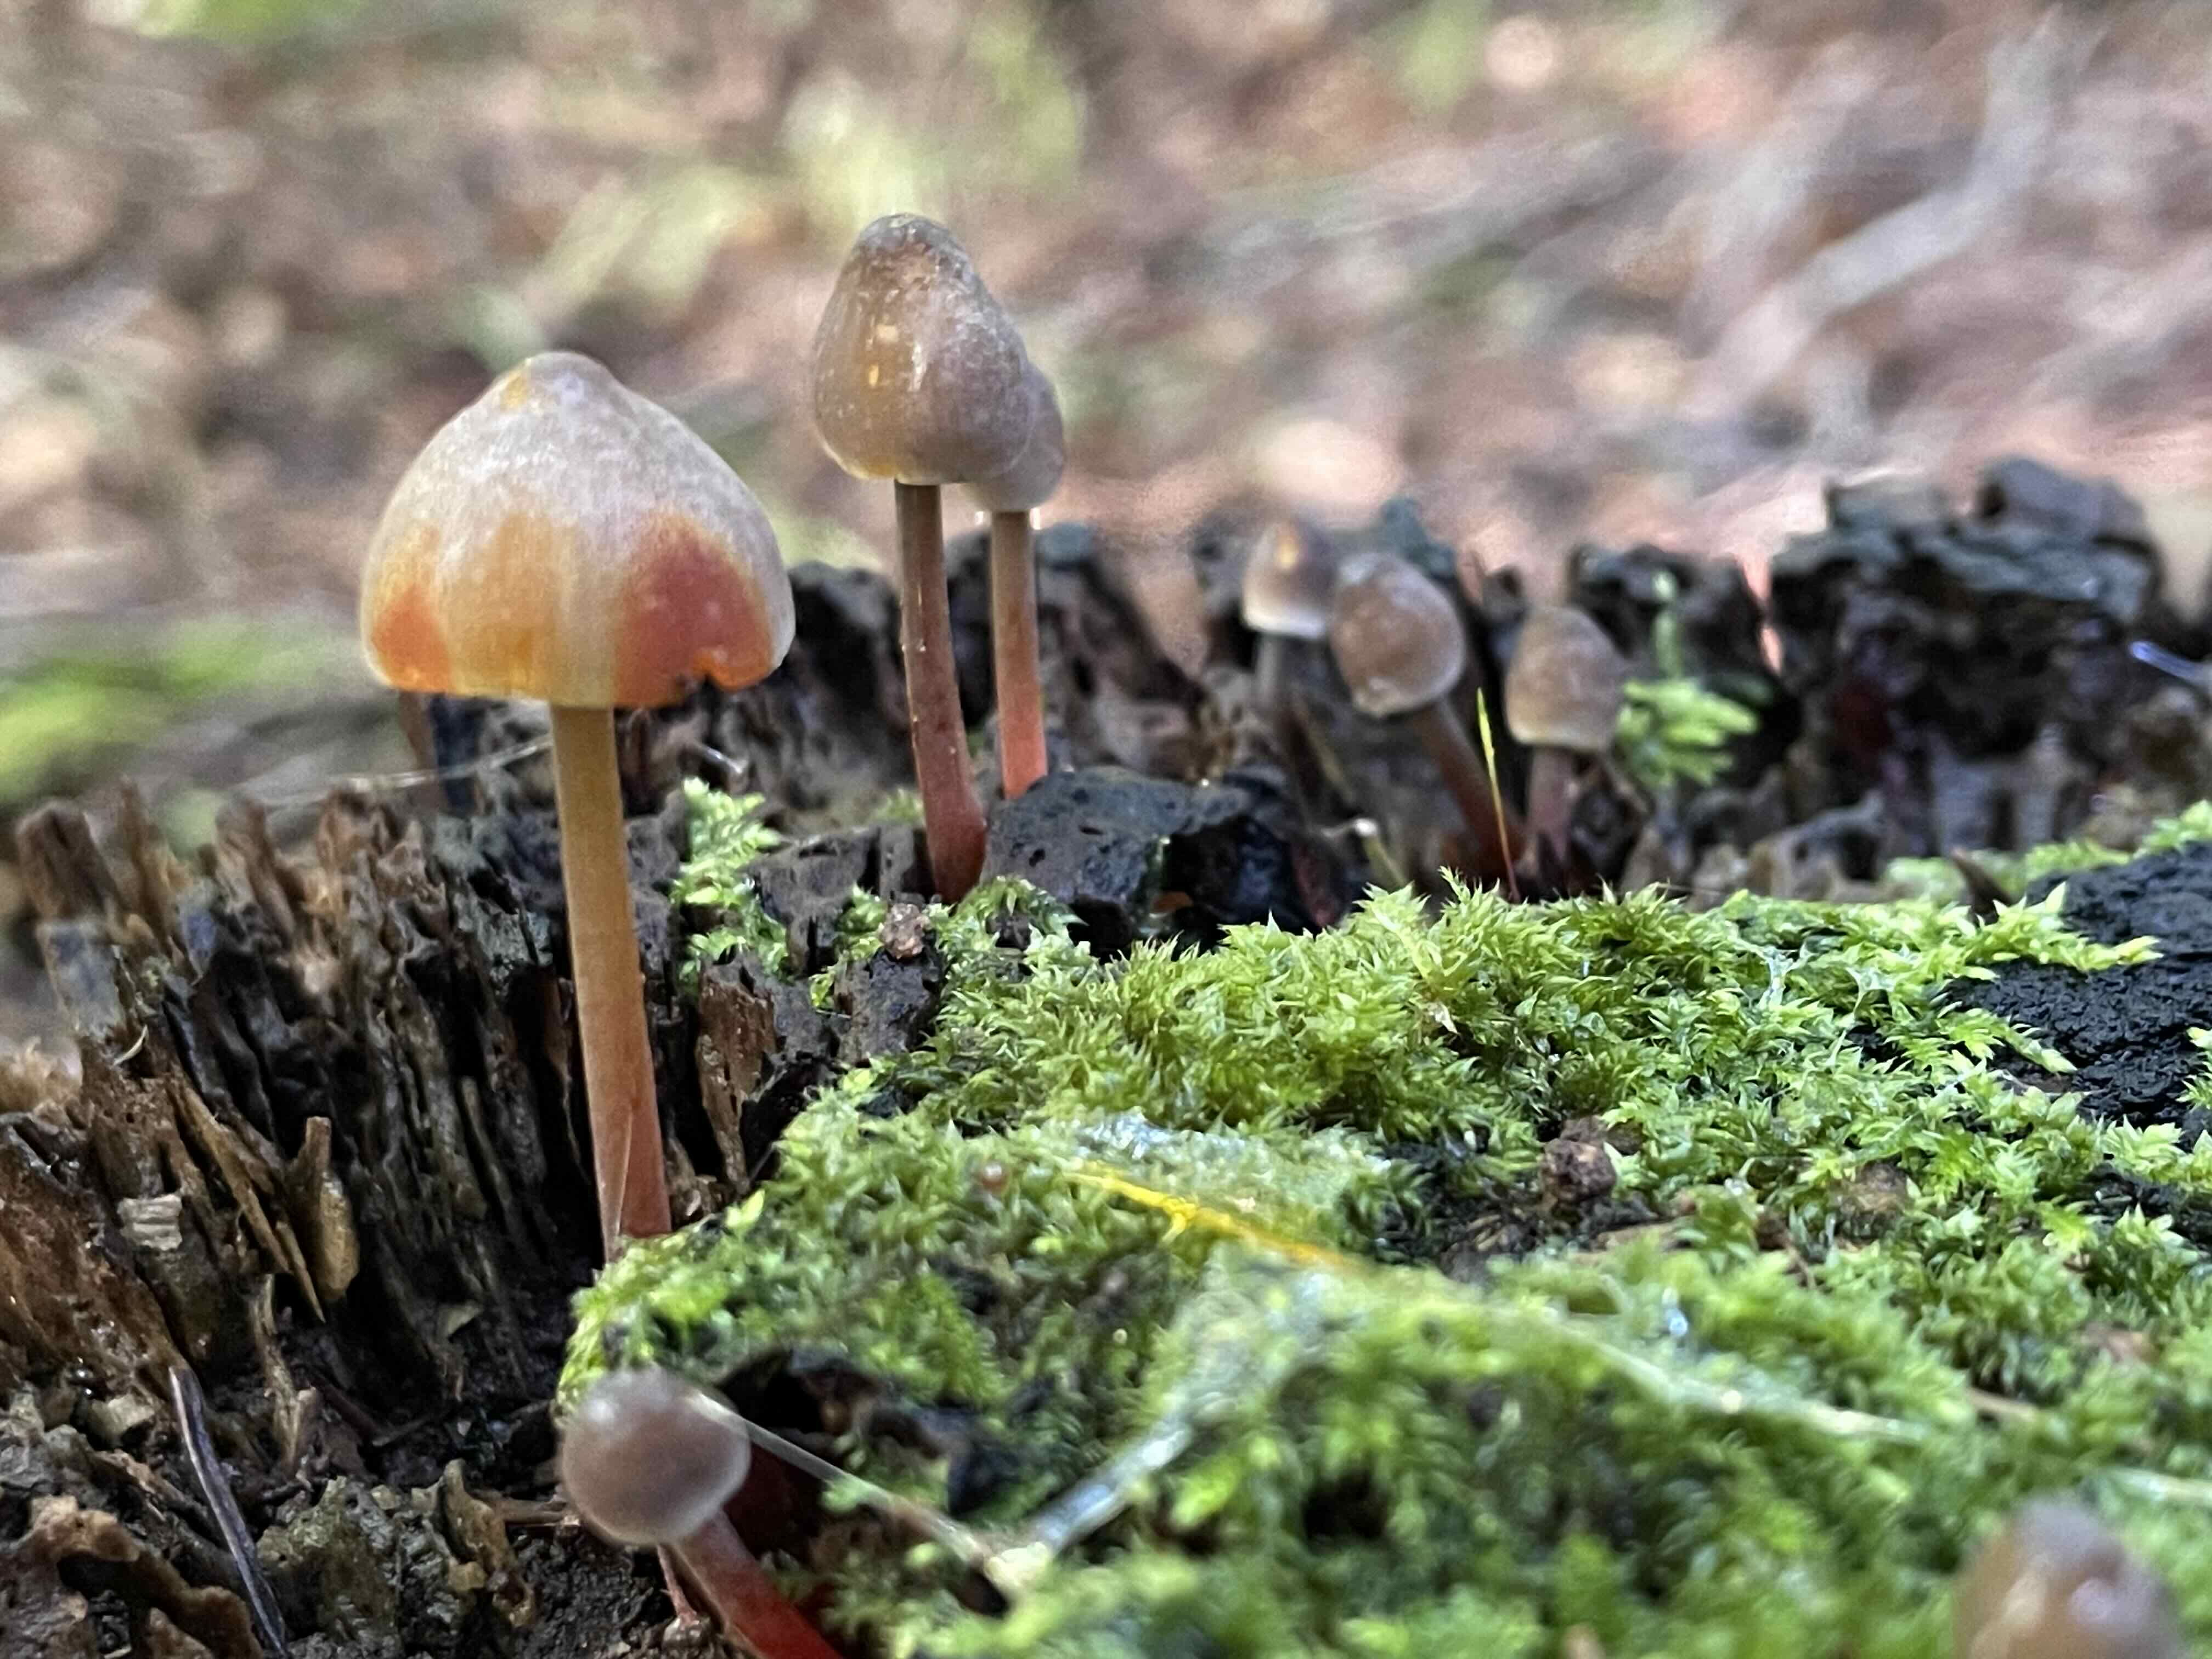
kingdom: Fungi
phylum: Basidiomycota
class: Agaricomycetes
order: Agaricales
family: Mycenaceae
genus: Mycena
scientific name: Mycena crocata
